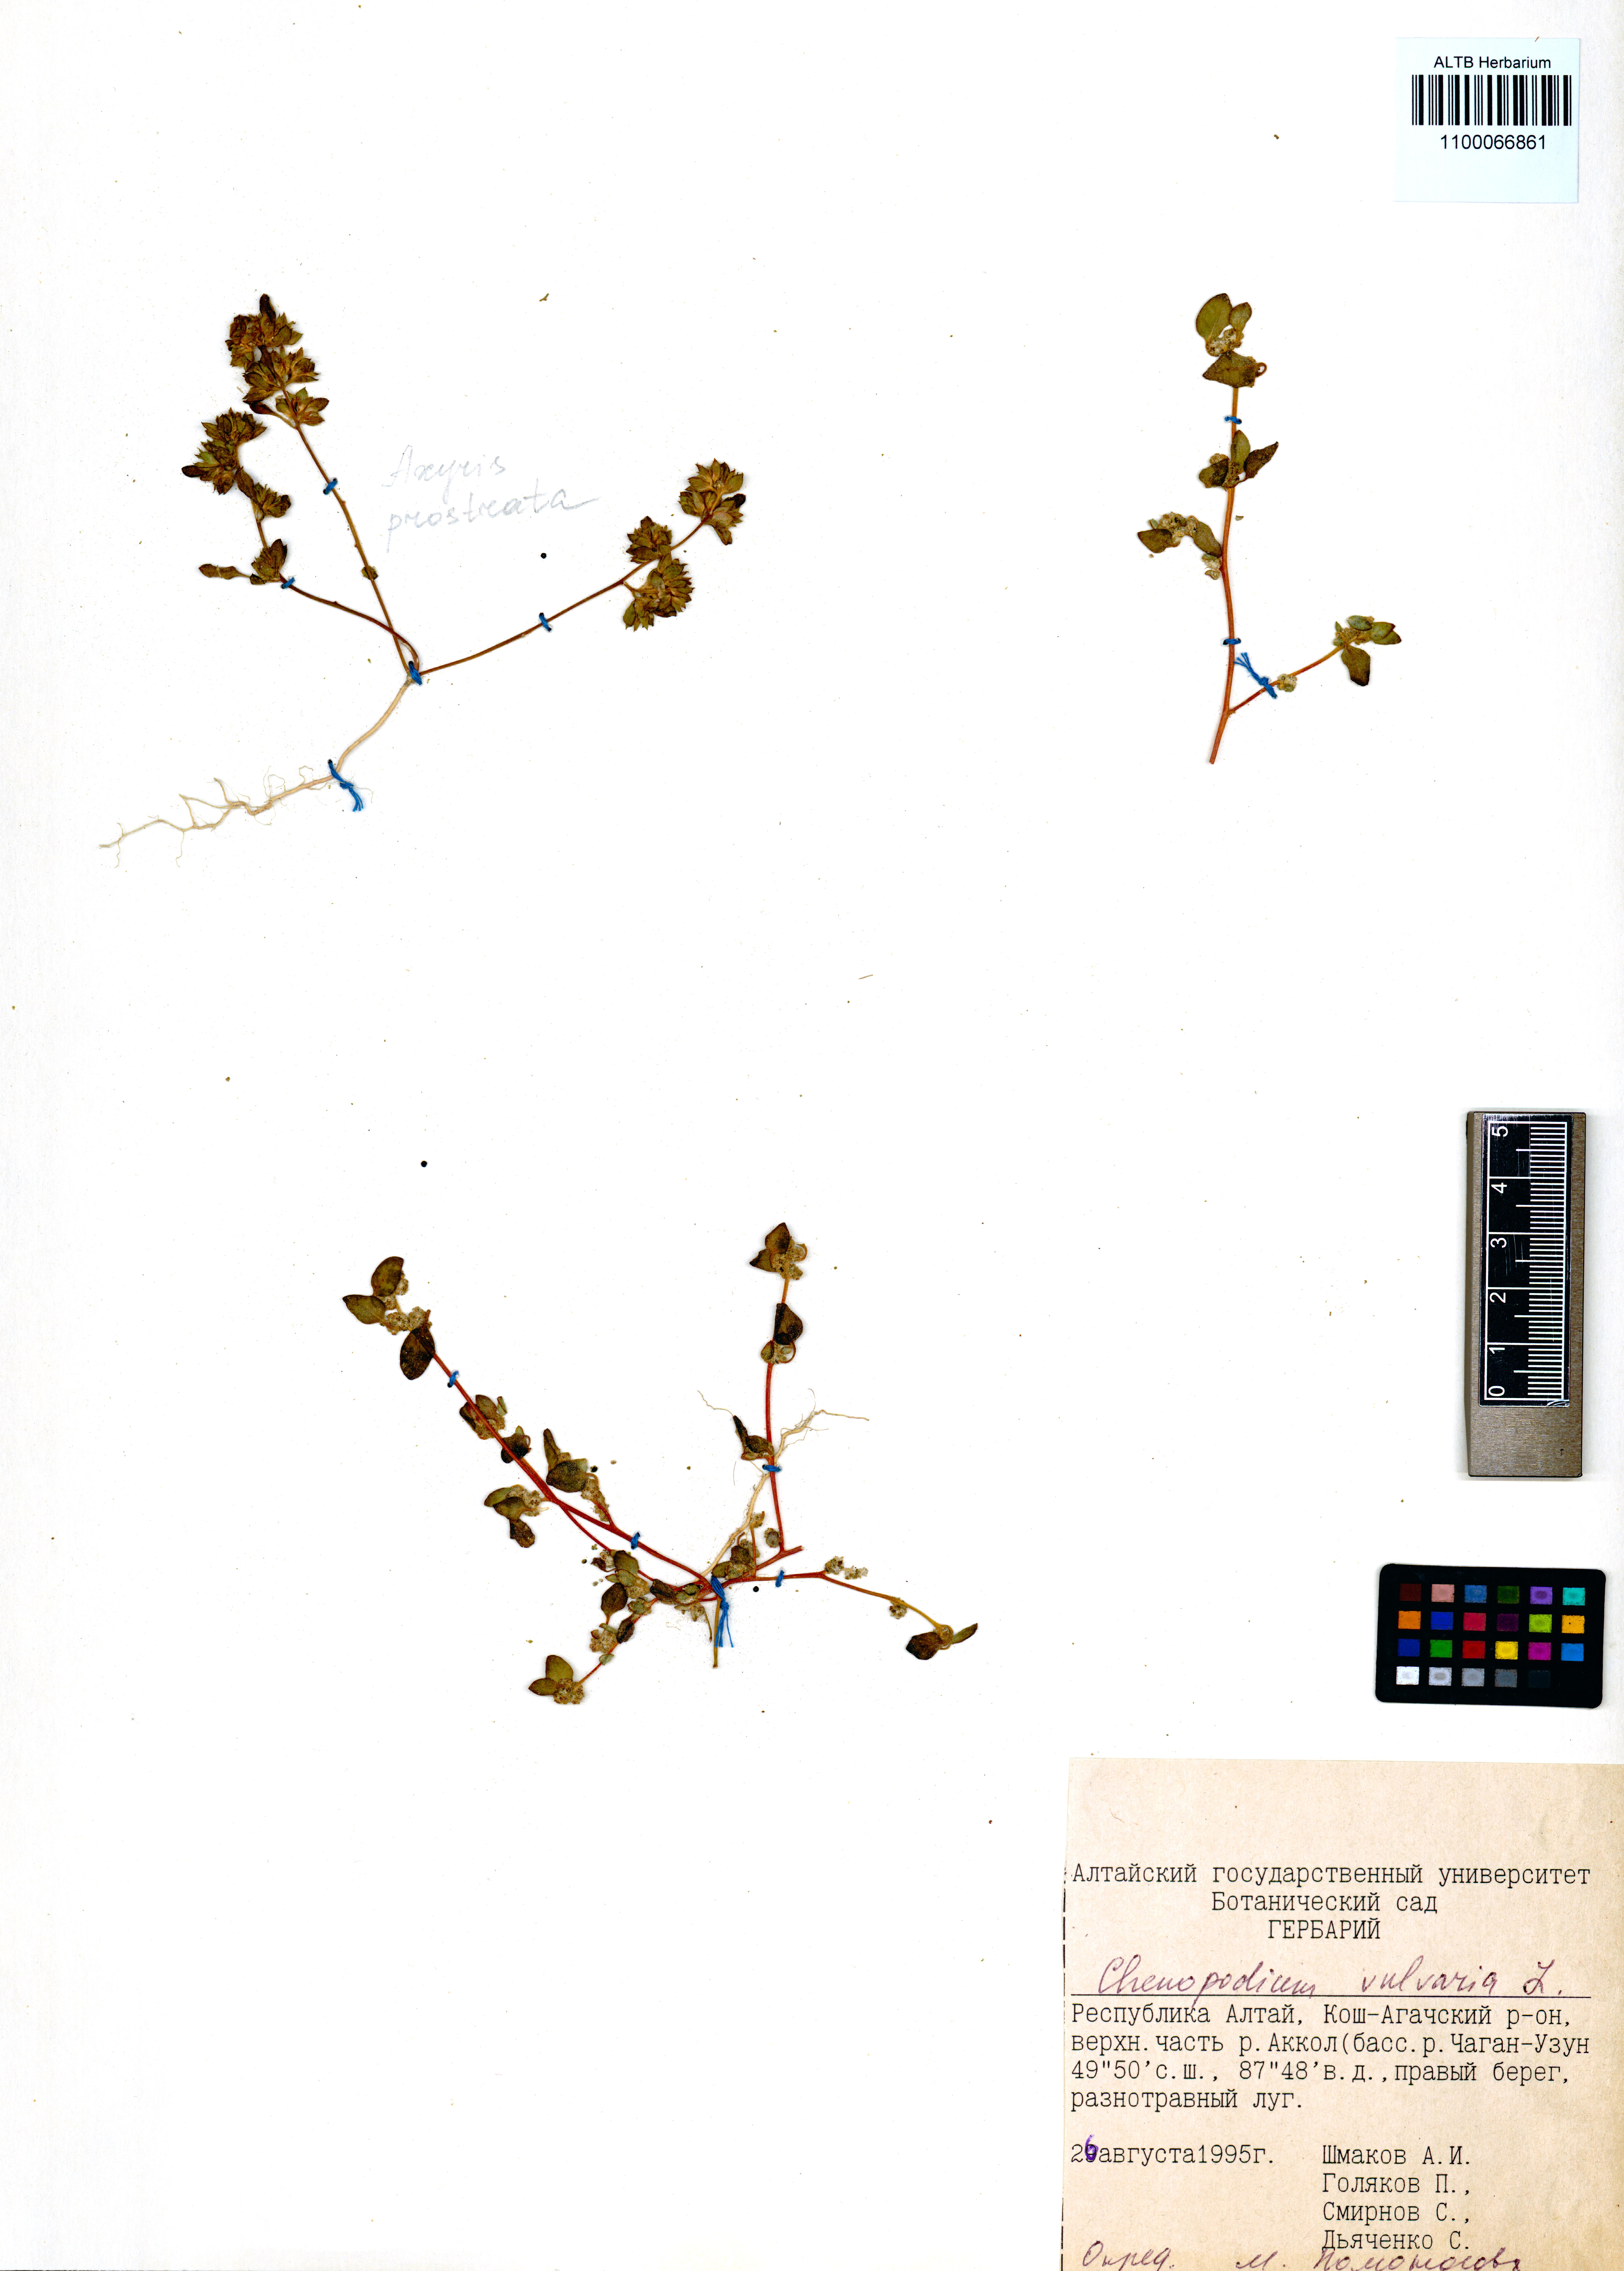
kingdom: Plantae
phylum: Tracheophyta
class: Magnoliopsida
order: Caryophyllales
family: Amaranthaceae
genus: Chenopodium
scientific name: Chenopodium vulvaria
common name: Stinking goosefoot
